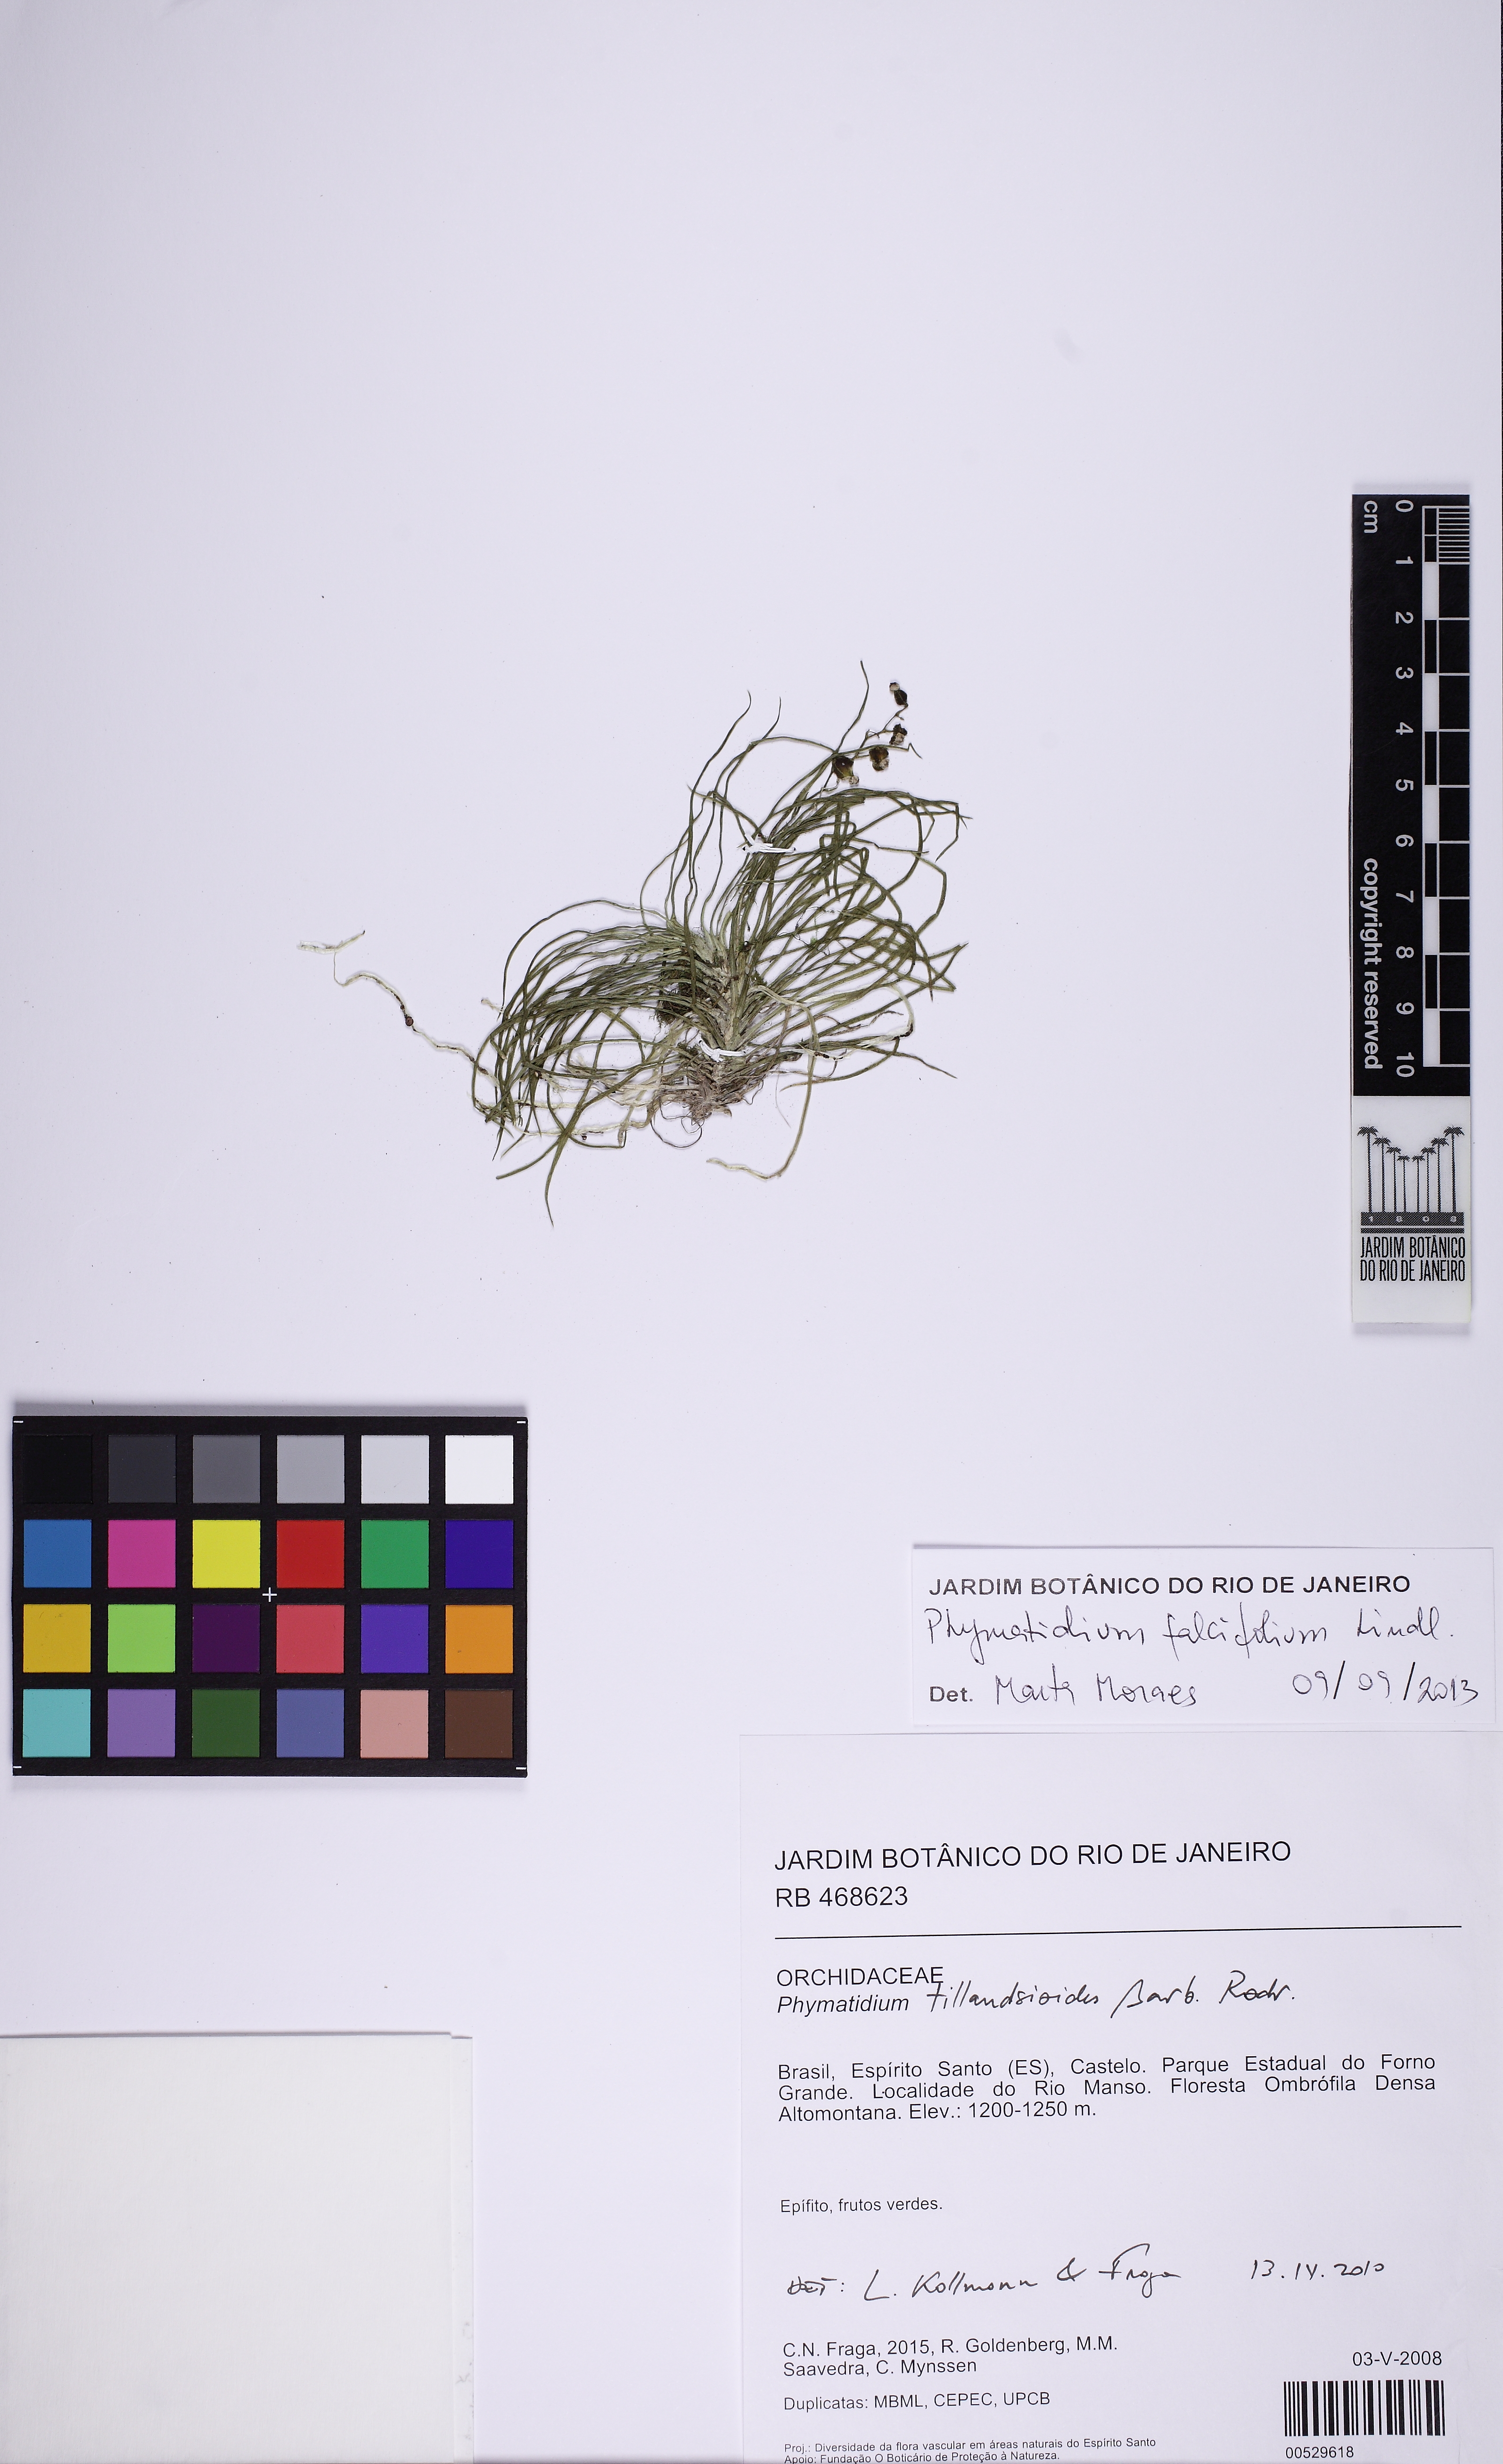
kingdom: Plantae
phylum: Tracheophyta
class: Liliopsida
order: Asparagales
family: Orchidaceae
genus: Phymatidium
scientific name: Phymatidium falcifolium
